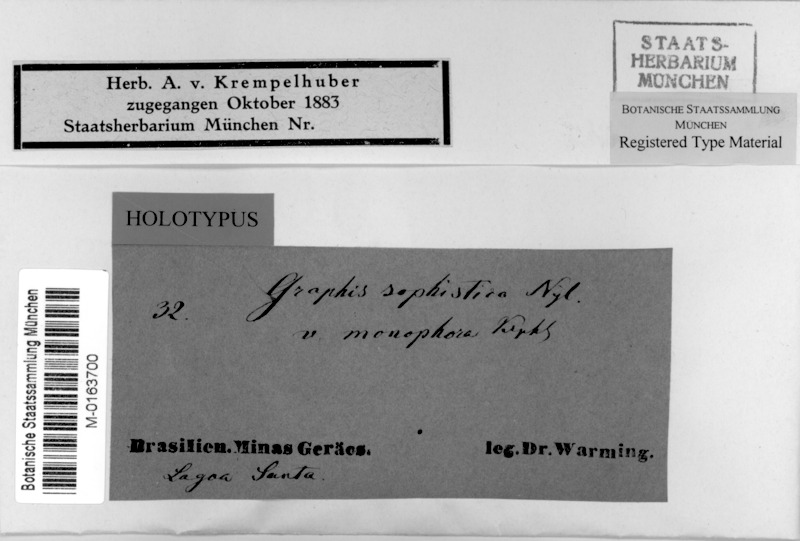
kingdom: Fungi
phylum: Ascomycota
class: Lecanoromycetes
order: Ostropales
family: Graphidaceae
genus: Graphina
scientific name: Graphina sophistica
